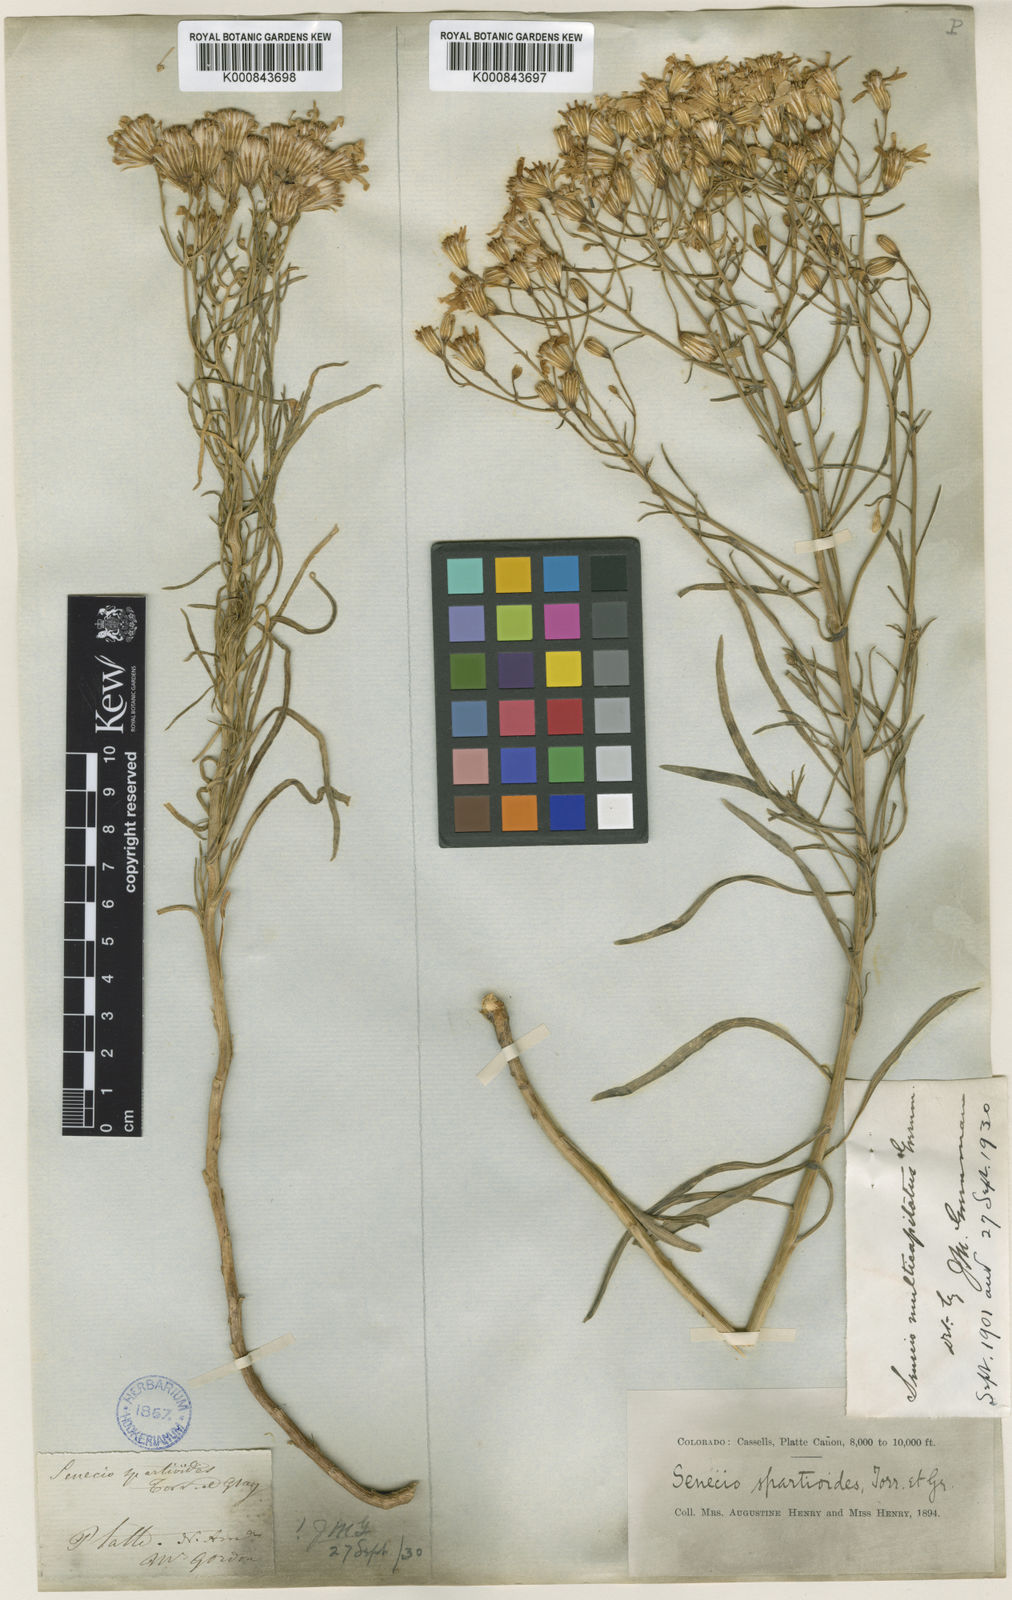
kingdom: Plantae
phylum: Tracheophyta
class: Magnoliopsida
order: Asterales
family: Asteraceae
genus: Senecio
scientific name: Senecio spartioides
